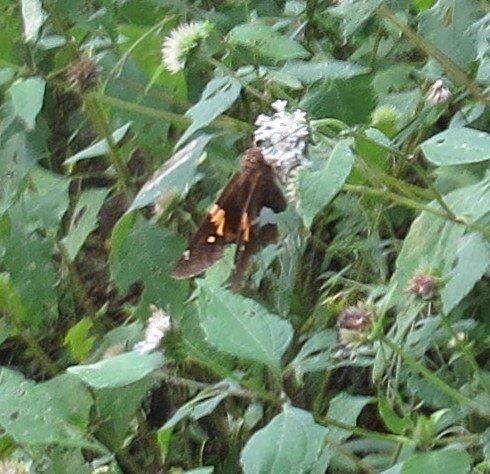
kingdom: Animalia
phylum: Arthropoda
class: Insecta
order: Lepidoptera
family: Hesperiidae
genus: Epargyreus
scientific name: Epargyreus clarus
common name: Silver-spotted Skipper
